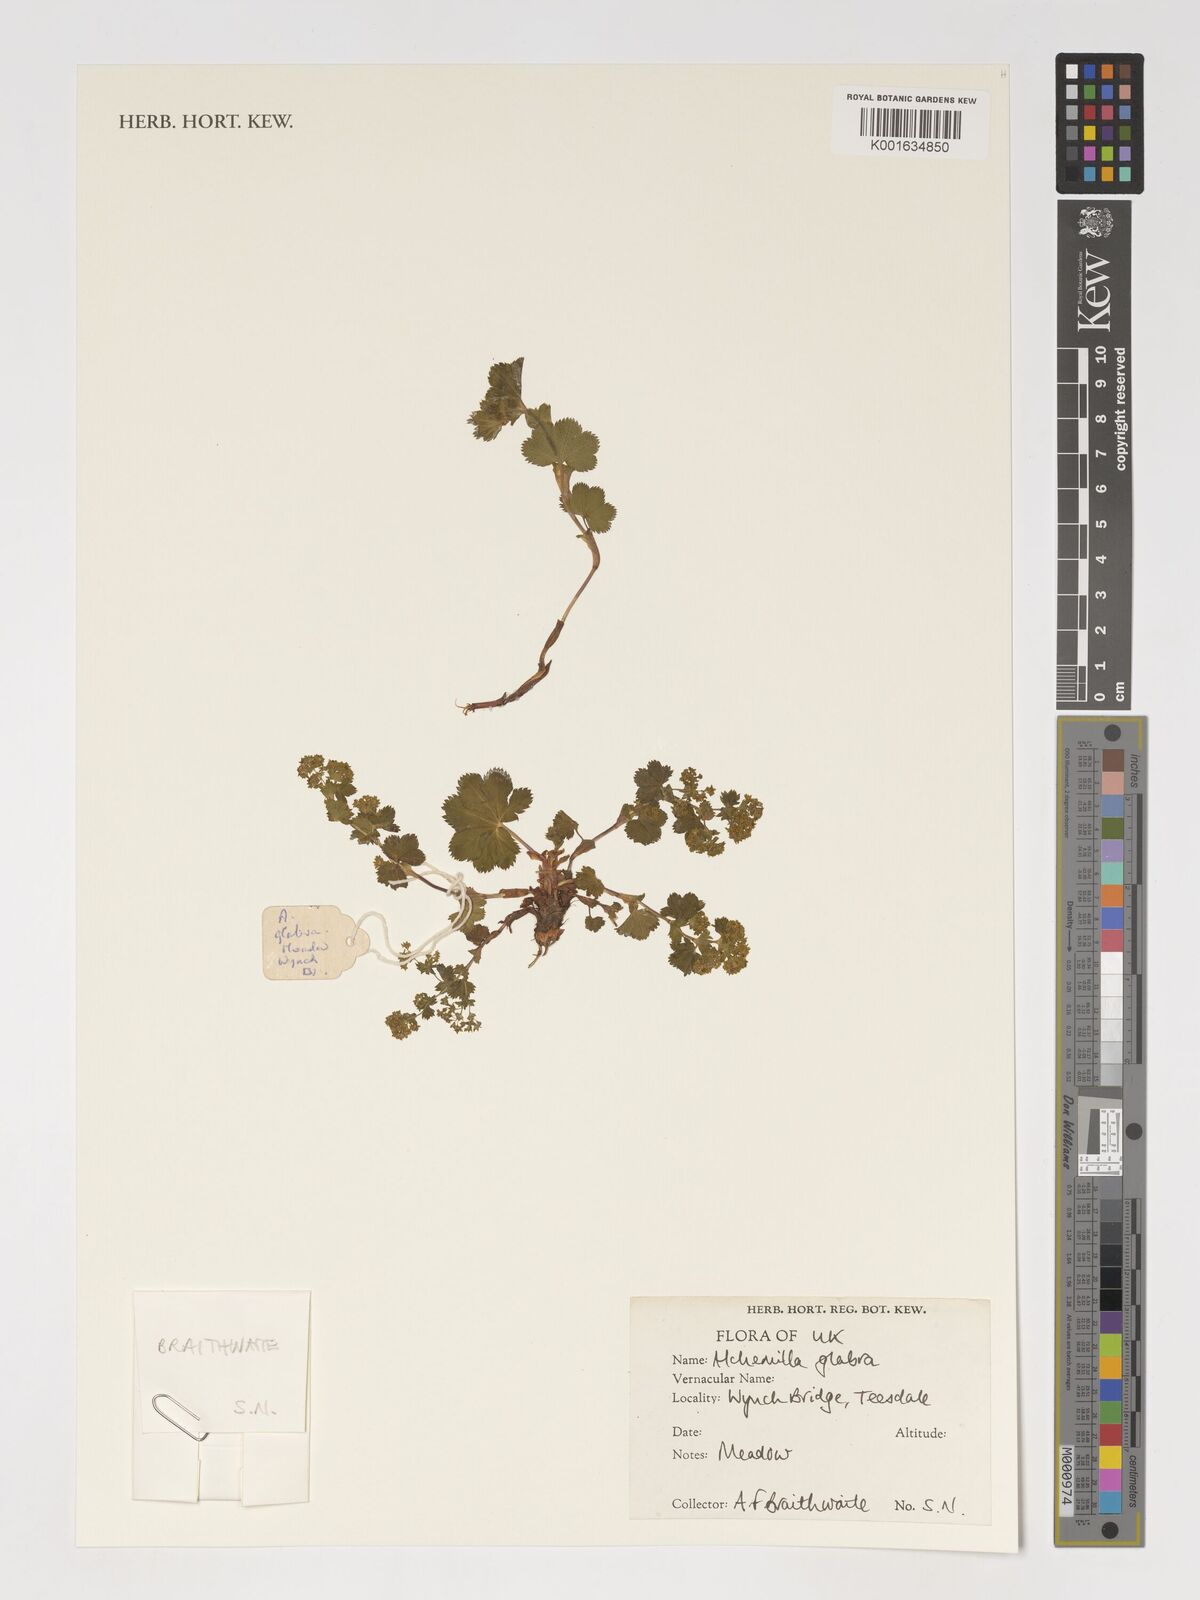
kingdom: Plantae
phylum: Tracheophyta
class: Magnoliopsida
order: Rosales
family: Rosaceae
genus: Alchemilla
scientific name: Alchemilla glabra
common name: Smooth lady's-mantle
